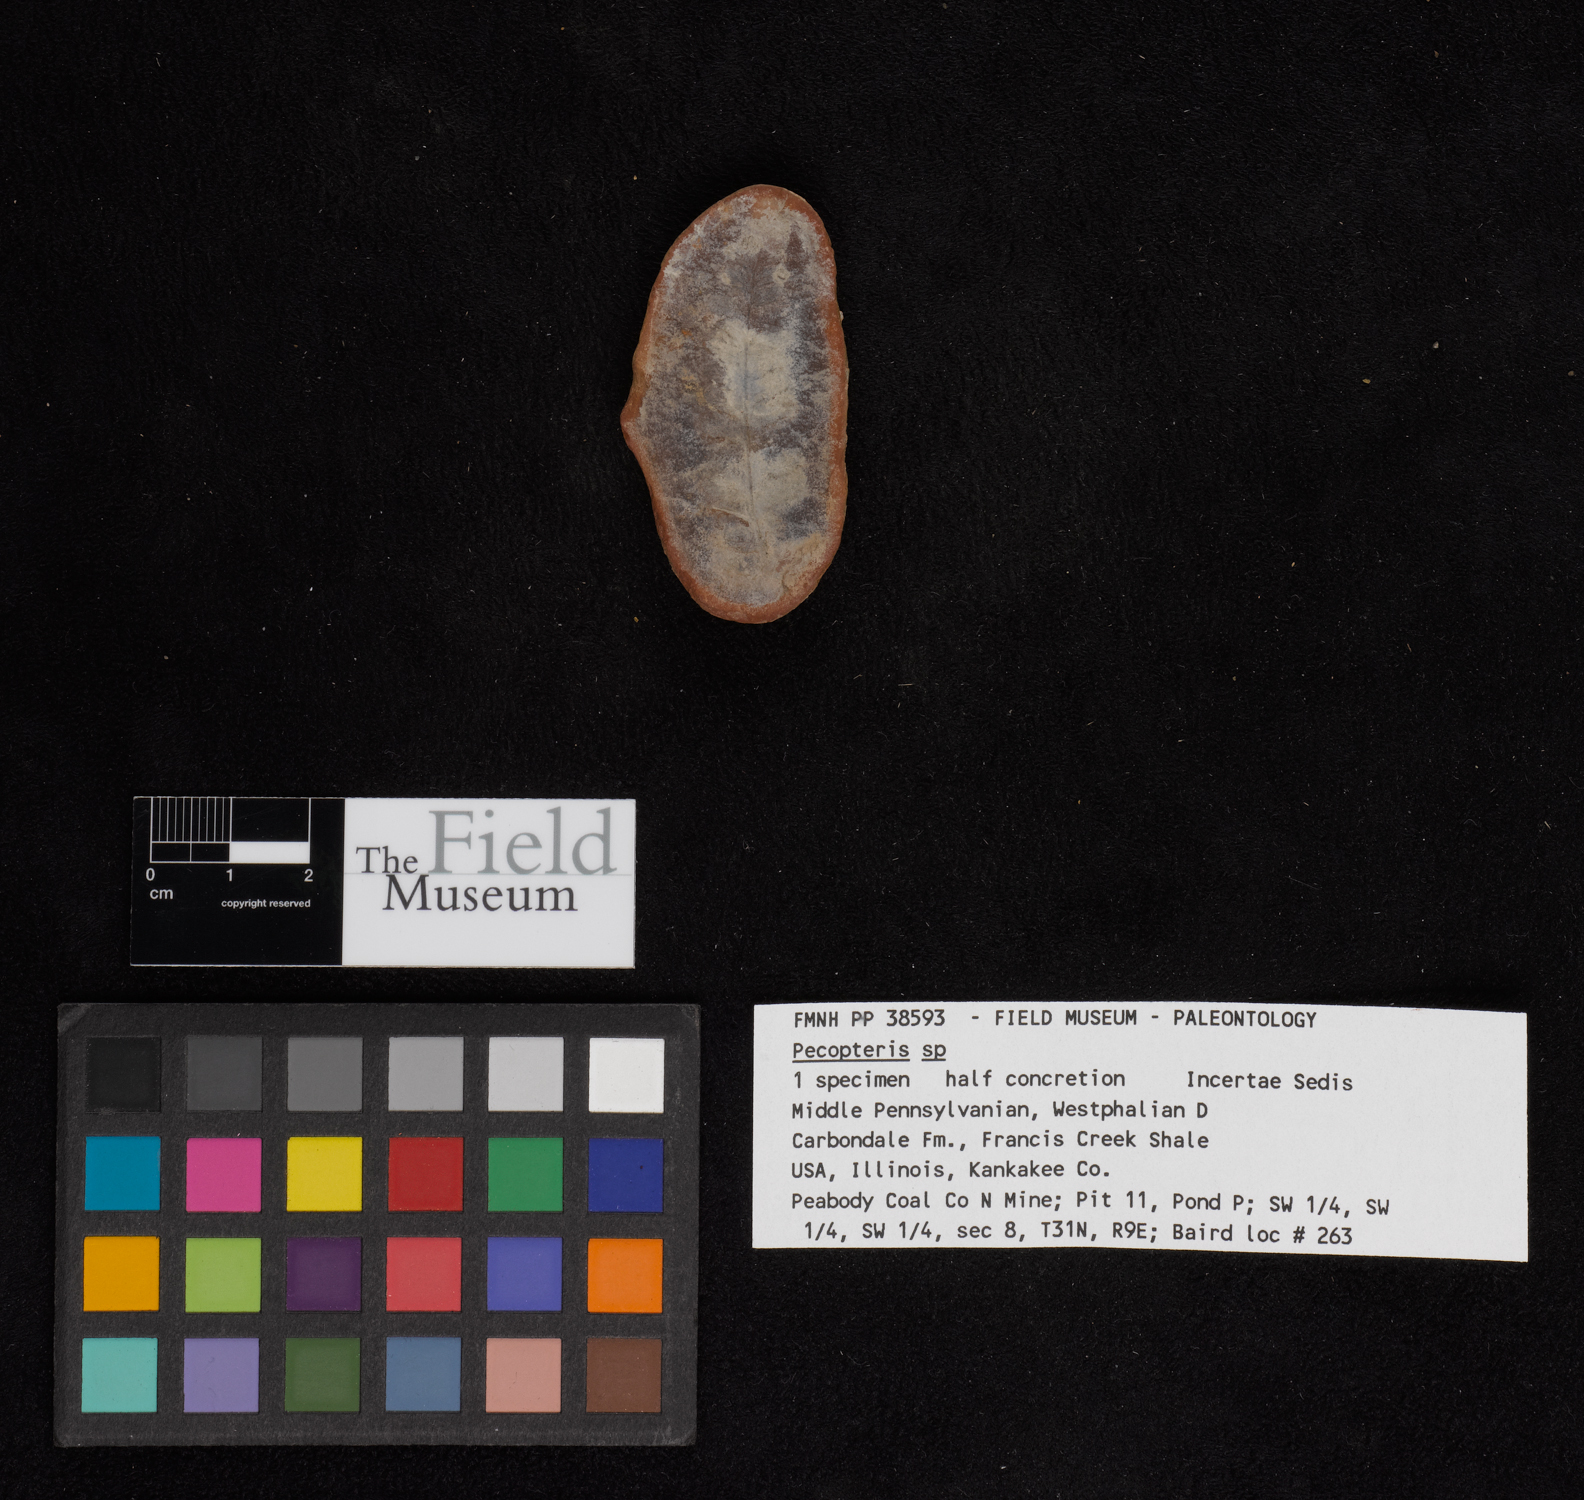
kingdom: Plantae
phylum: Tracheophyta
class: Polypodiopsida
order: Marattiales
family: Asterothecaceae
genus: Pecopteris
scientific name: Pecopteris
